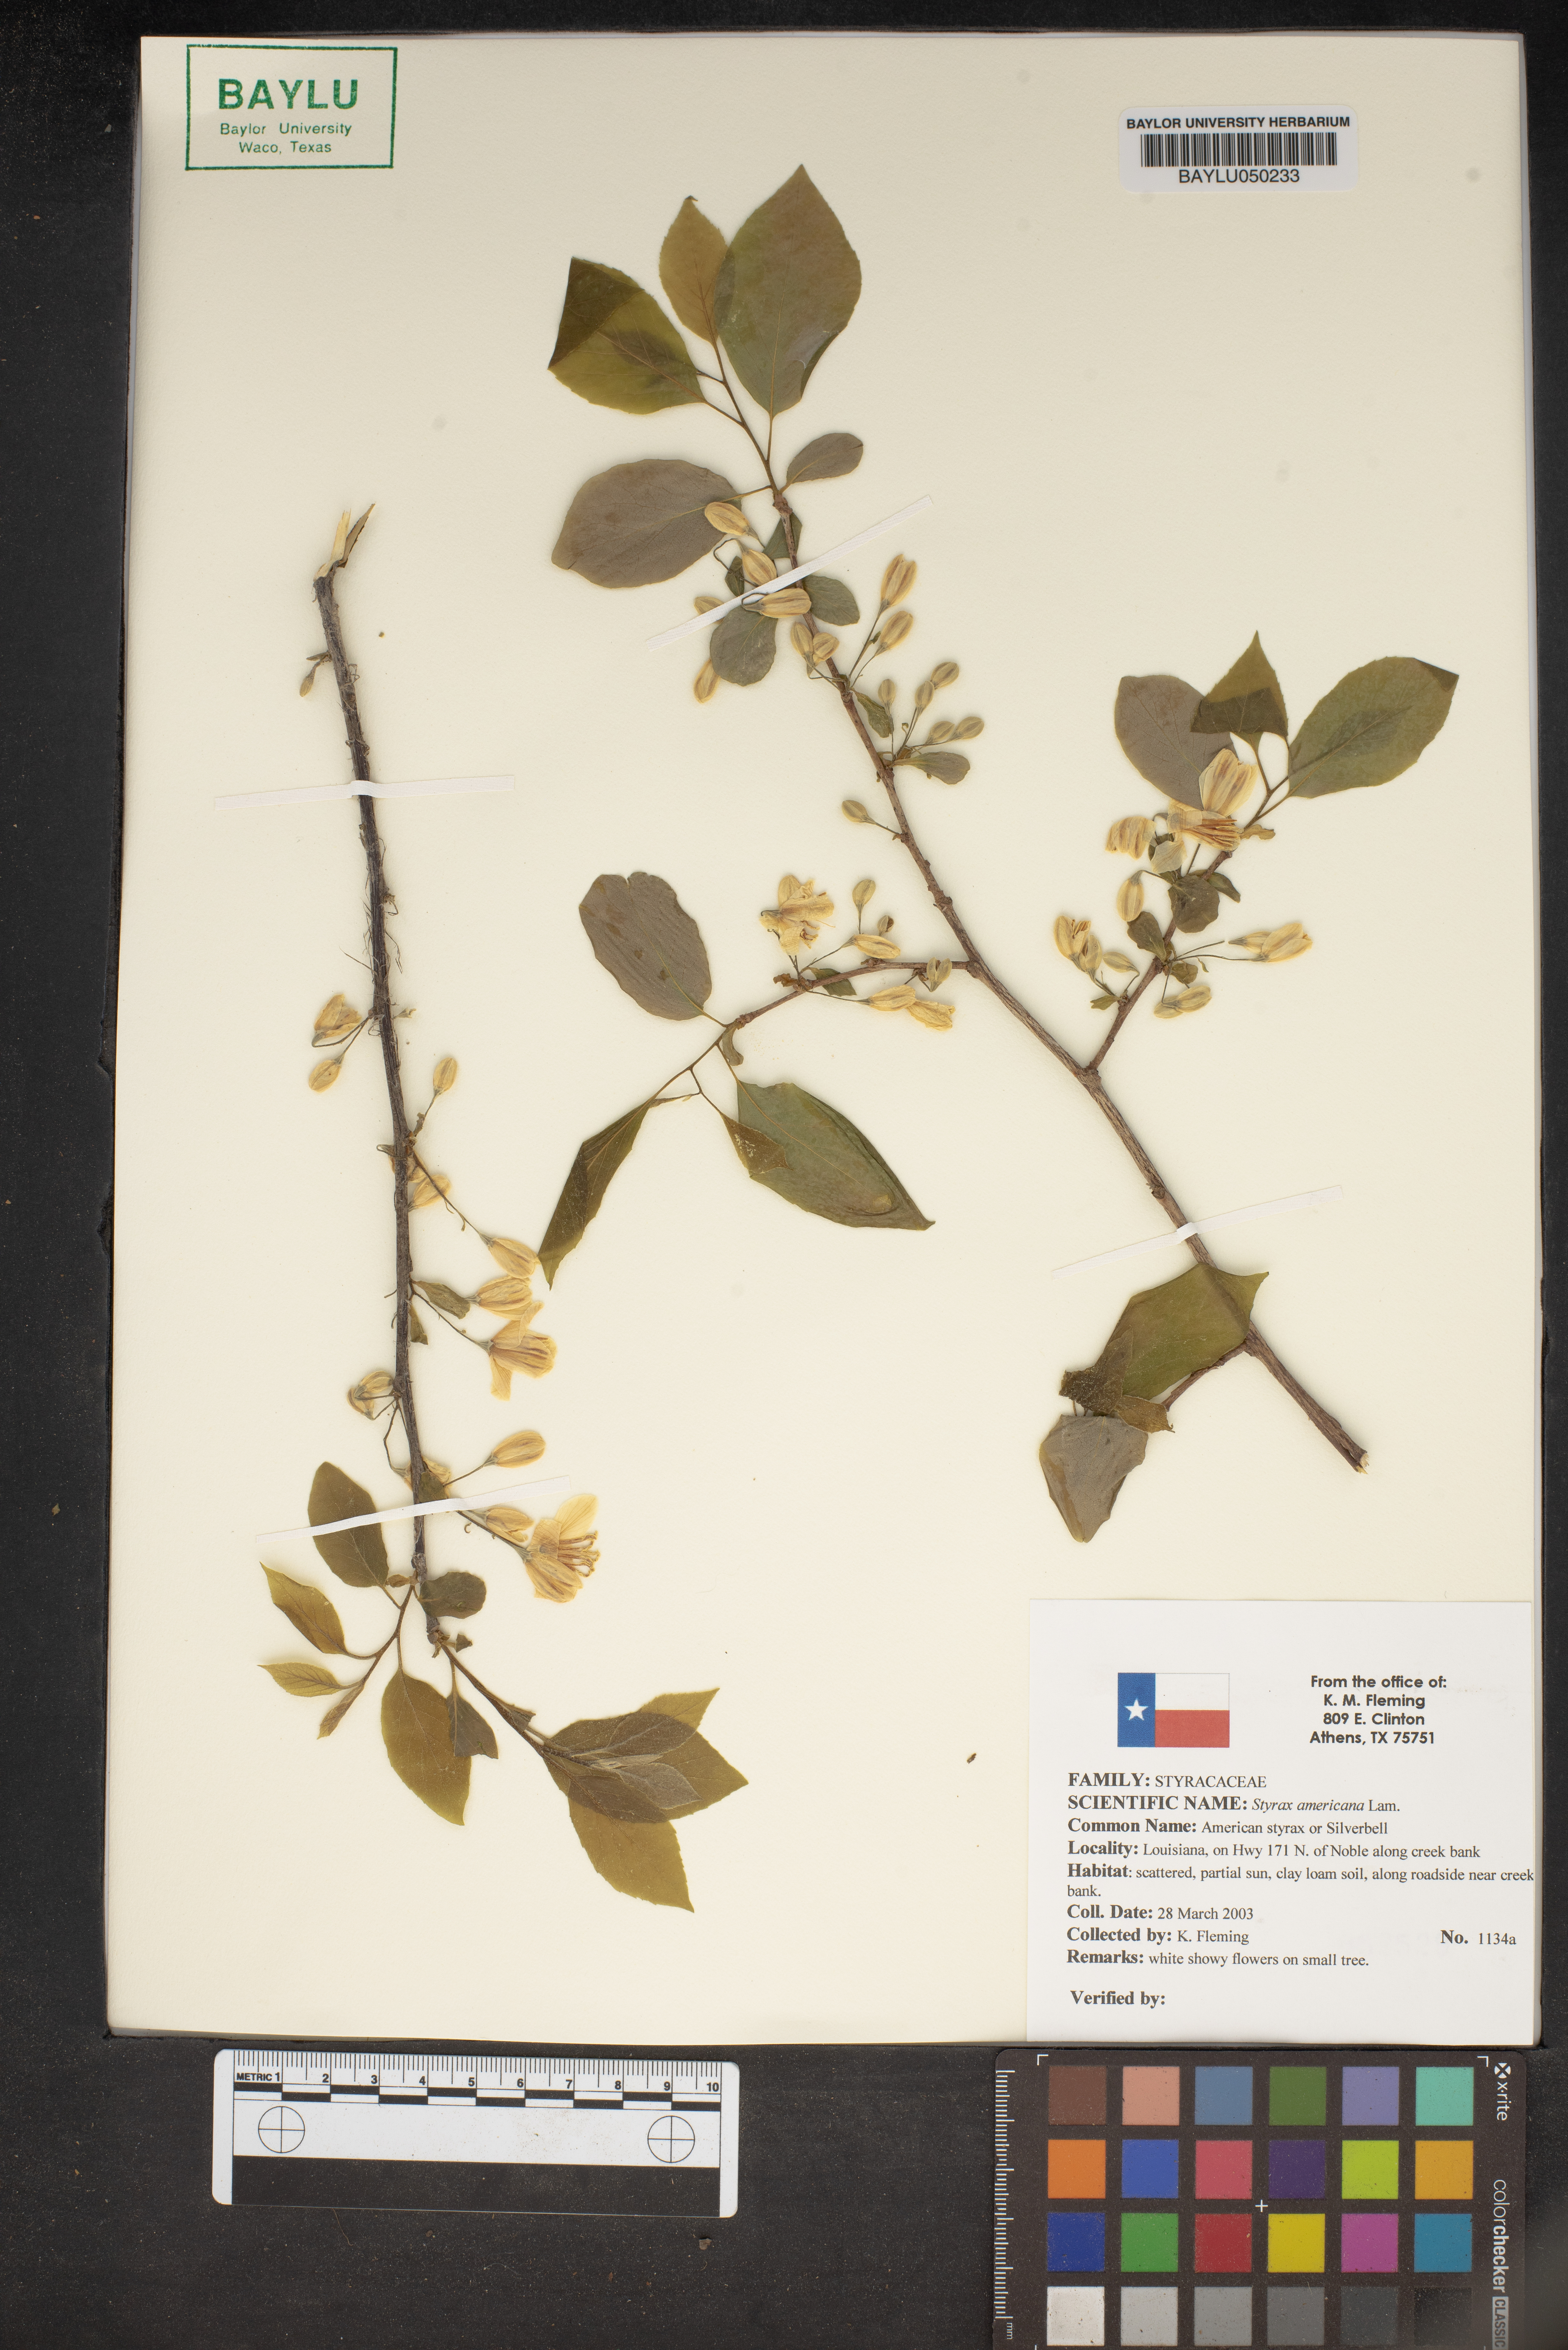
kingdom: Plantae
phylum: Tracheophyta
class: Magnoliopsida
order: Ericales
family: Styracaceae
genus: Styrax
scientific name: Styrax americanus
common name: American snowbell
